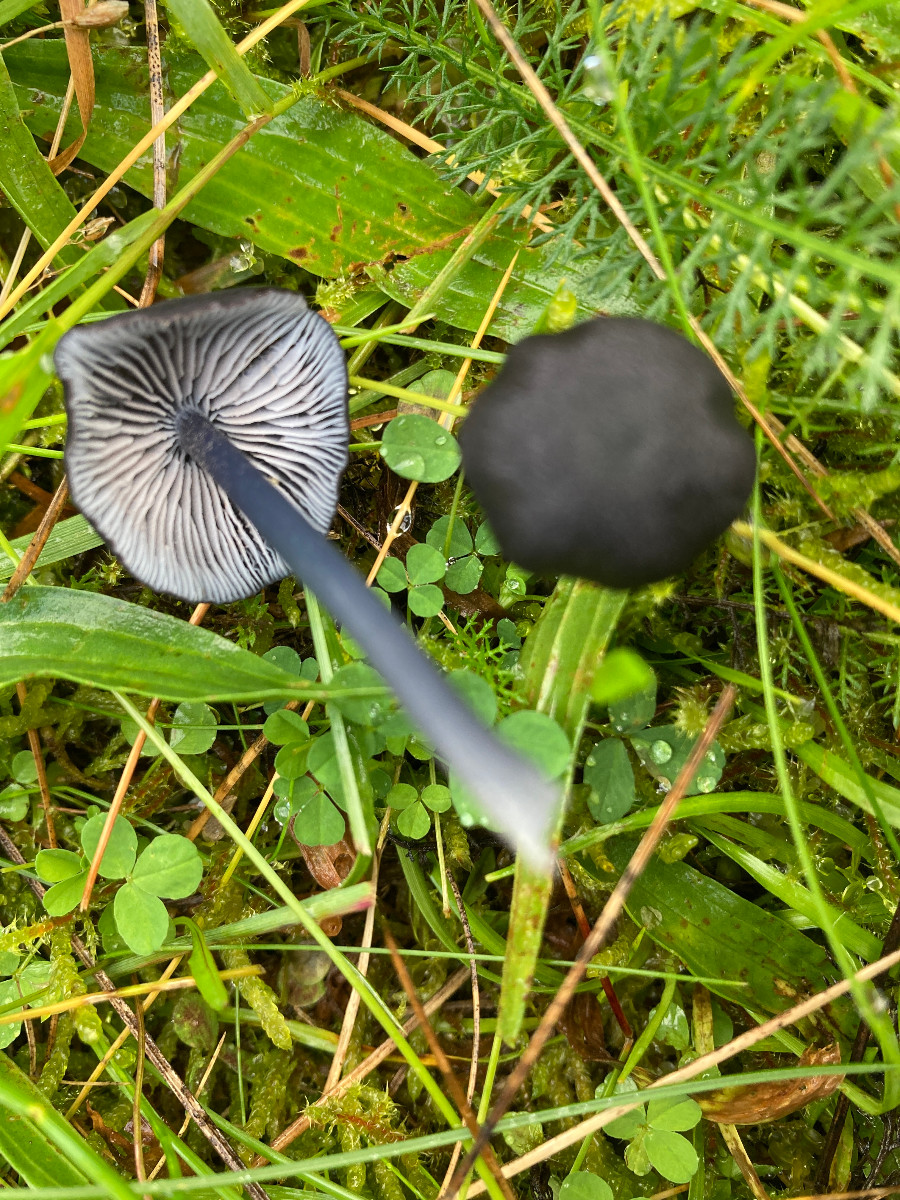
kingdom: Fungi
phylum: Basidiomycota
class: Agaricomycetes
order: Agaricales
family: Entolomataceae
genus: Entoloma
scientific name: Entoloma chalybeum
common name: blåbladet rødblad
